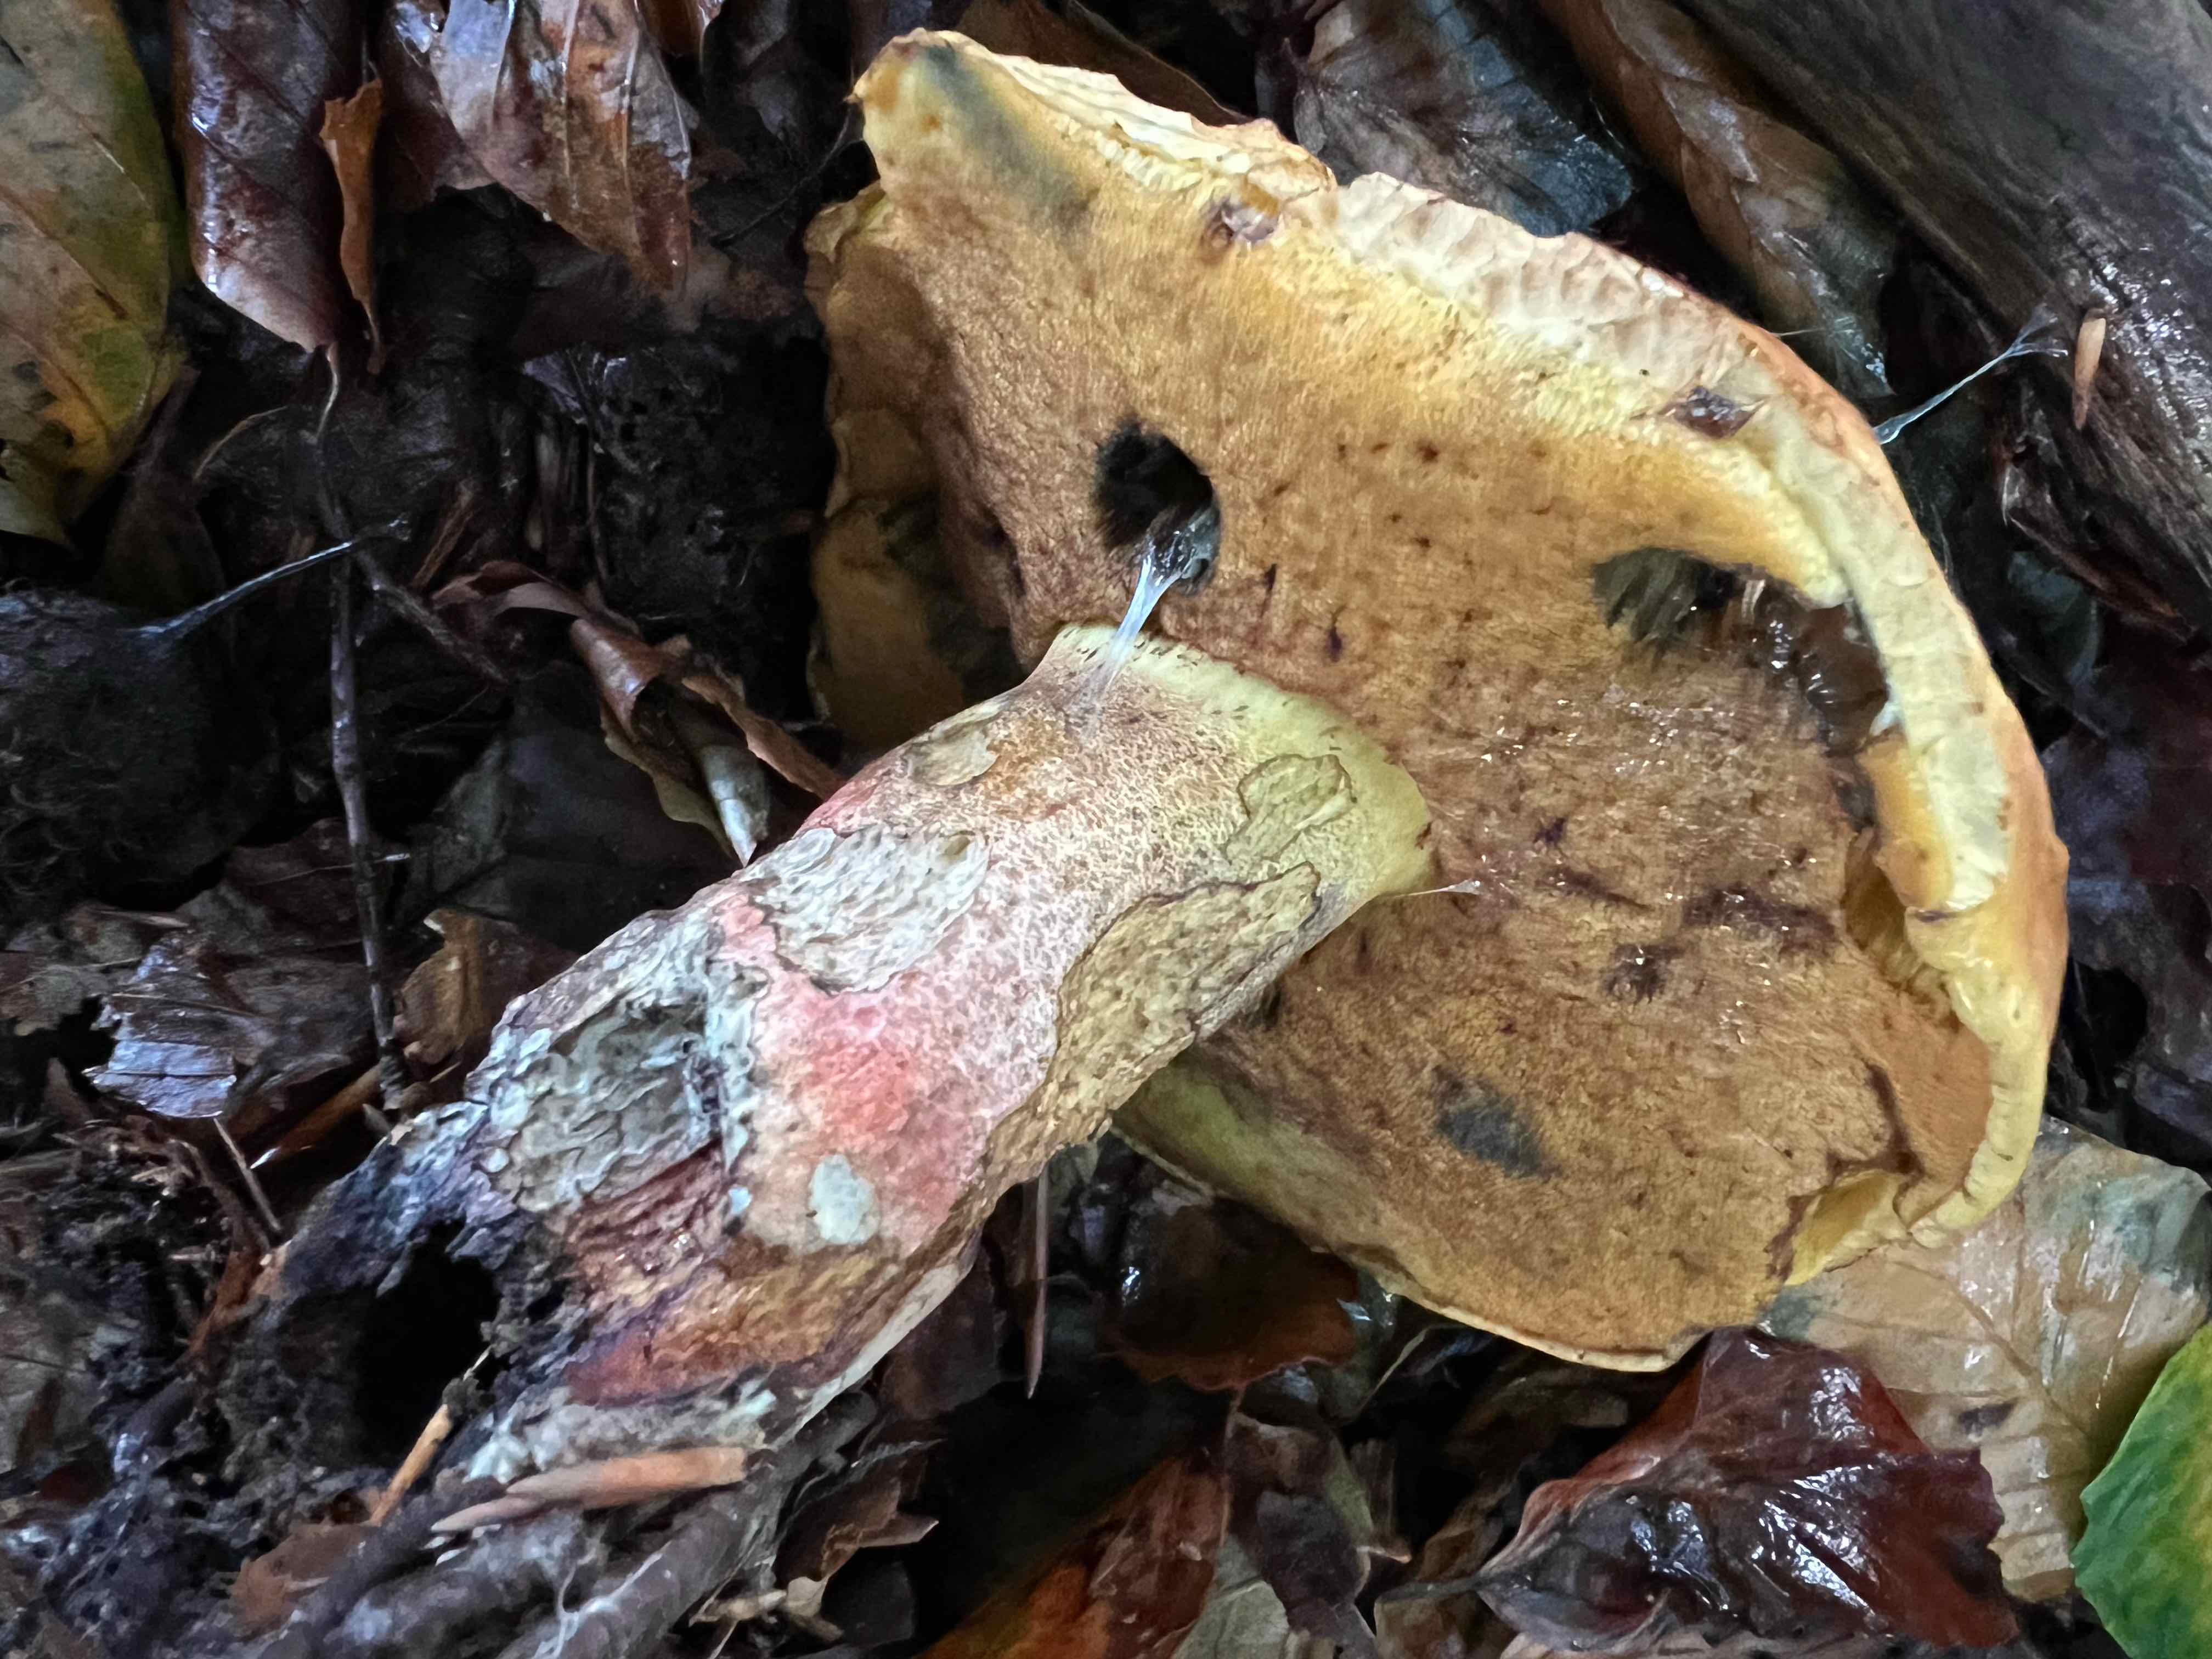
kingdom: Fungi
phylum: Basidiomycota
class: Agaricomycetes
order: Boletales
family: Boletaceae
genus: Neoboletus
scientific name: Neoboletus erythropus
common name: punktstokket indigorørhat
